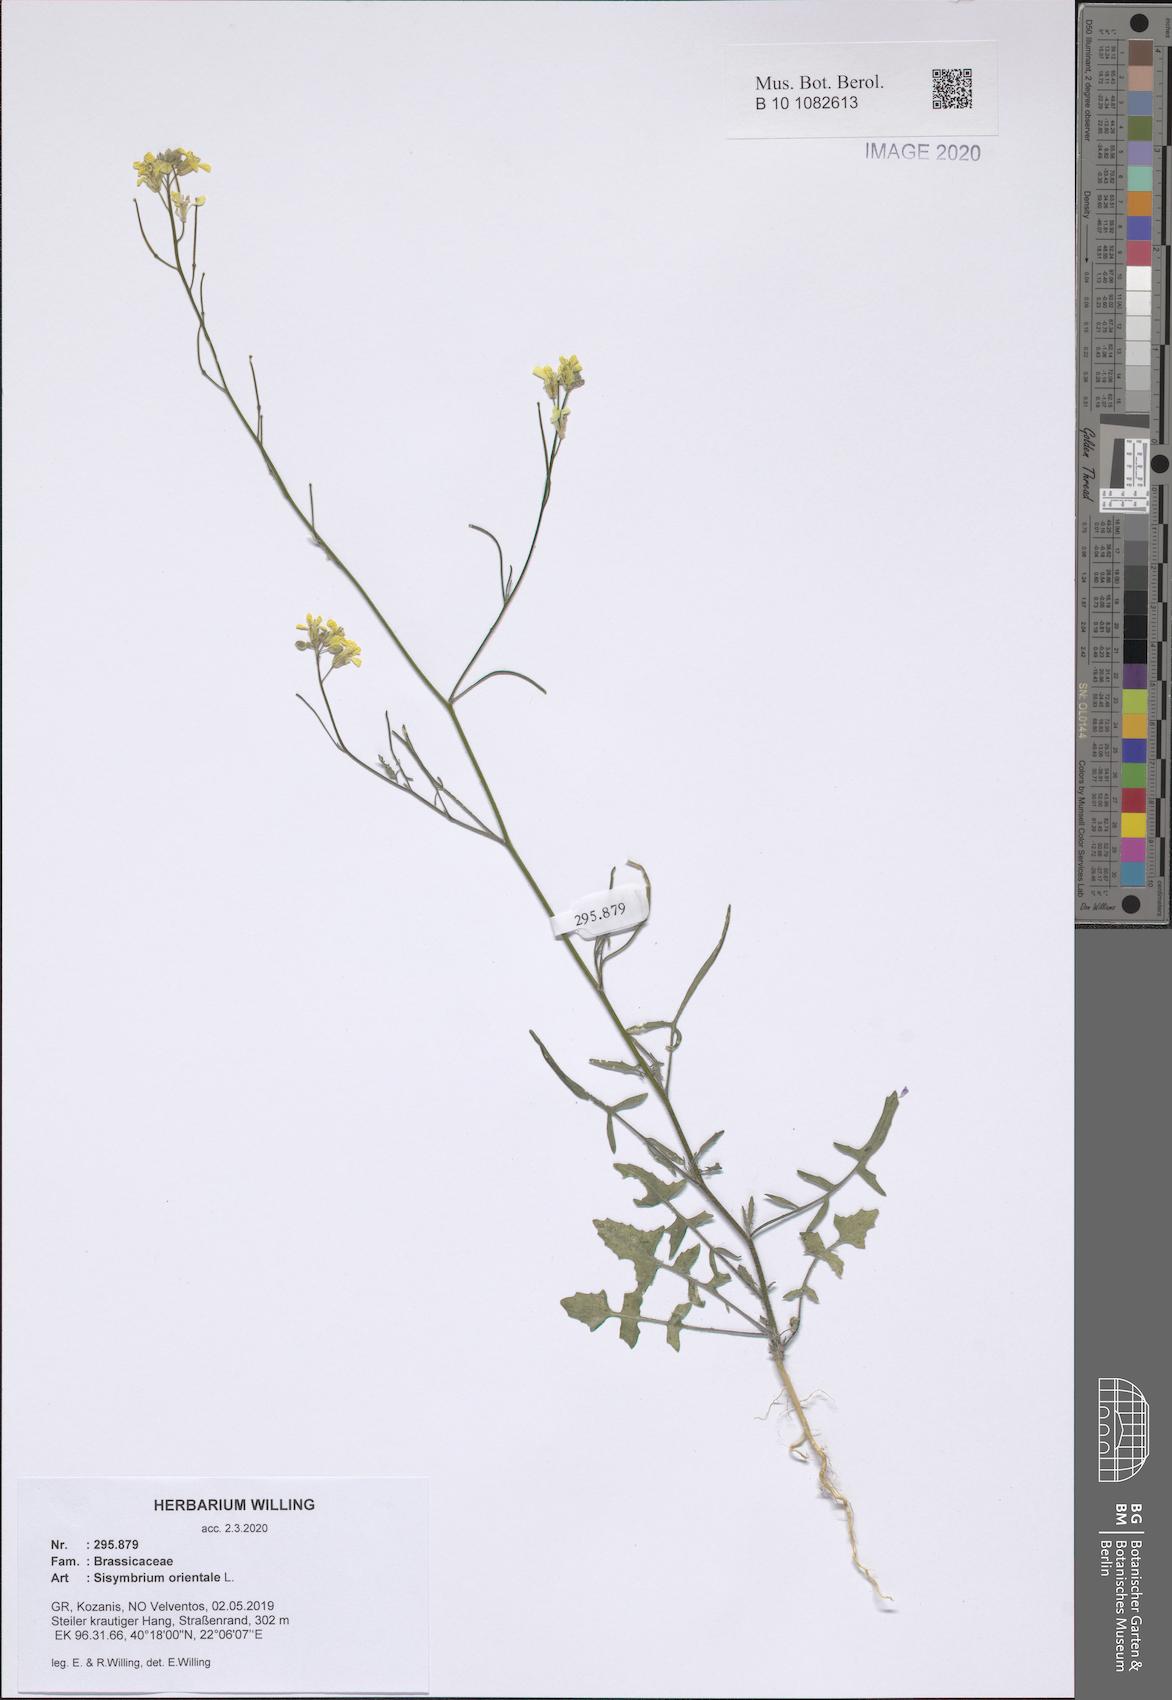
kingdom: Plantae
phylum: Tracheophyta
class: Magnoliopsida
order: Brassicales
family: Brassicaceae
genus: Sisymbrium
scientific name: Sisymbrium orientale
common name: Eastern rocket
